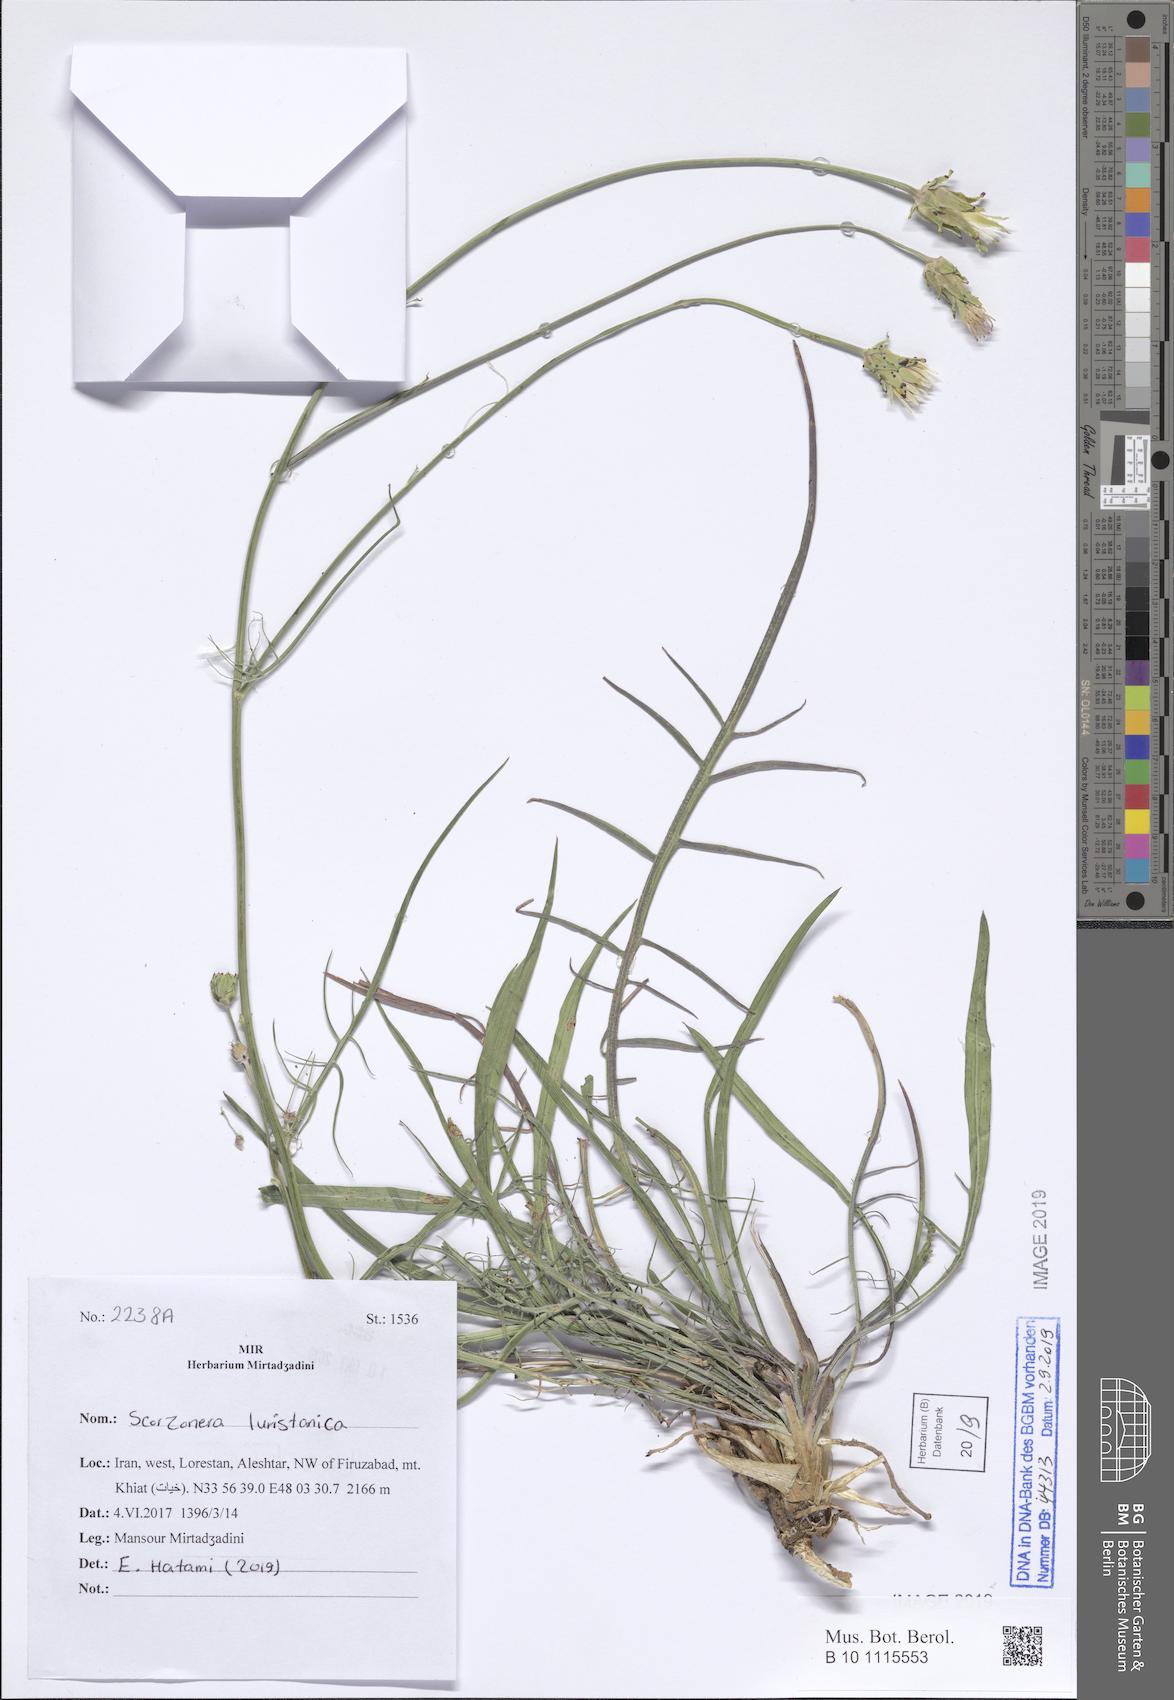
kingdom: Plantae
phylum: Tracheophyta
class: Magnoliopsida
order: Asterales
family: Asteraceae
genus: Scorzonera
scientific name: Scorzonera persepolitana
